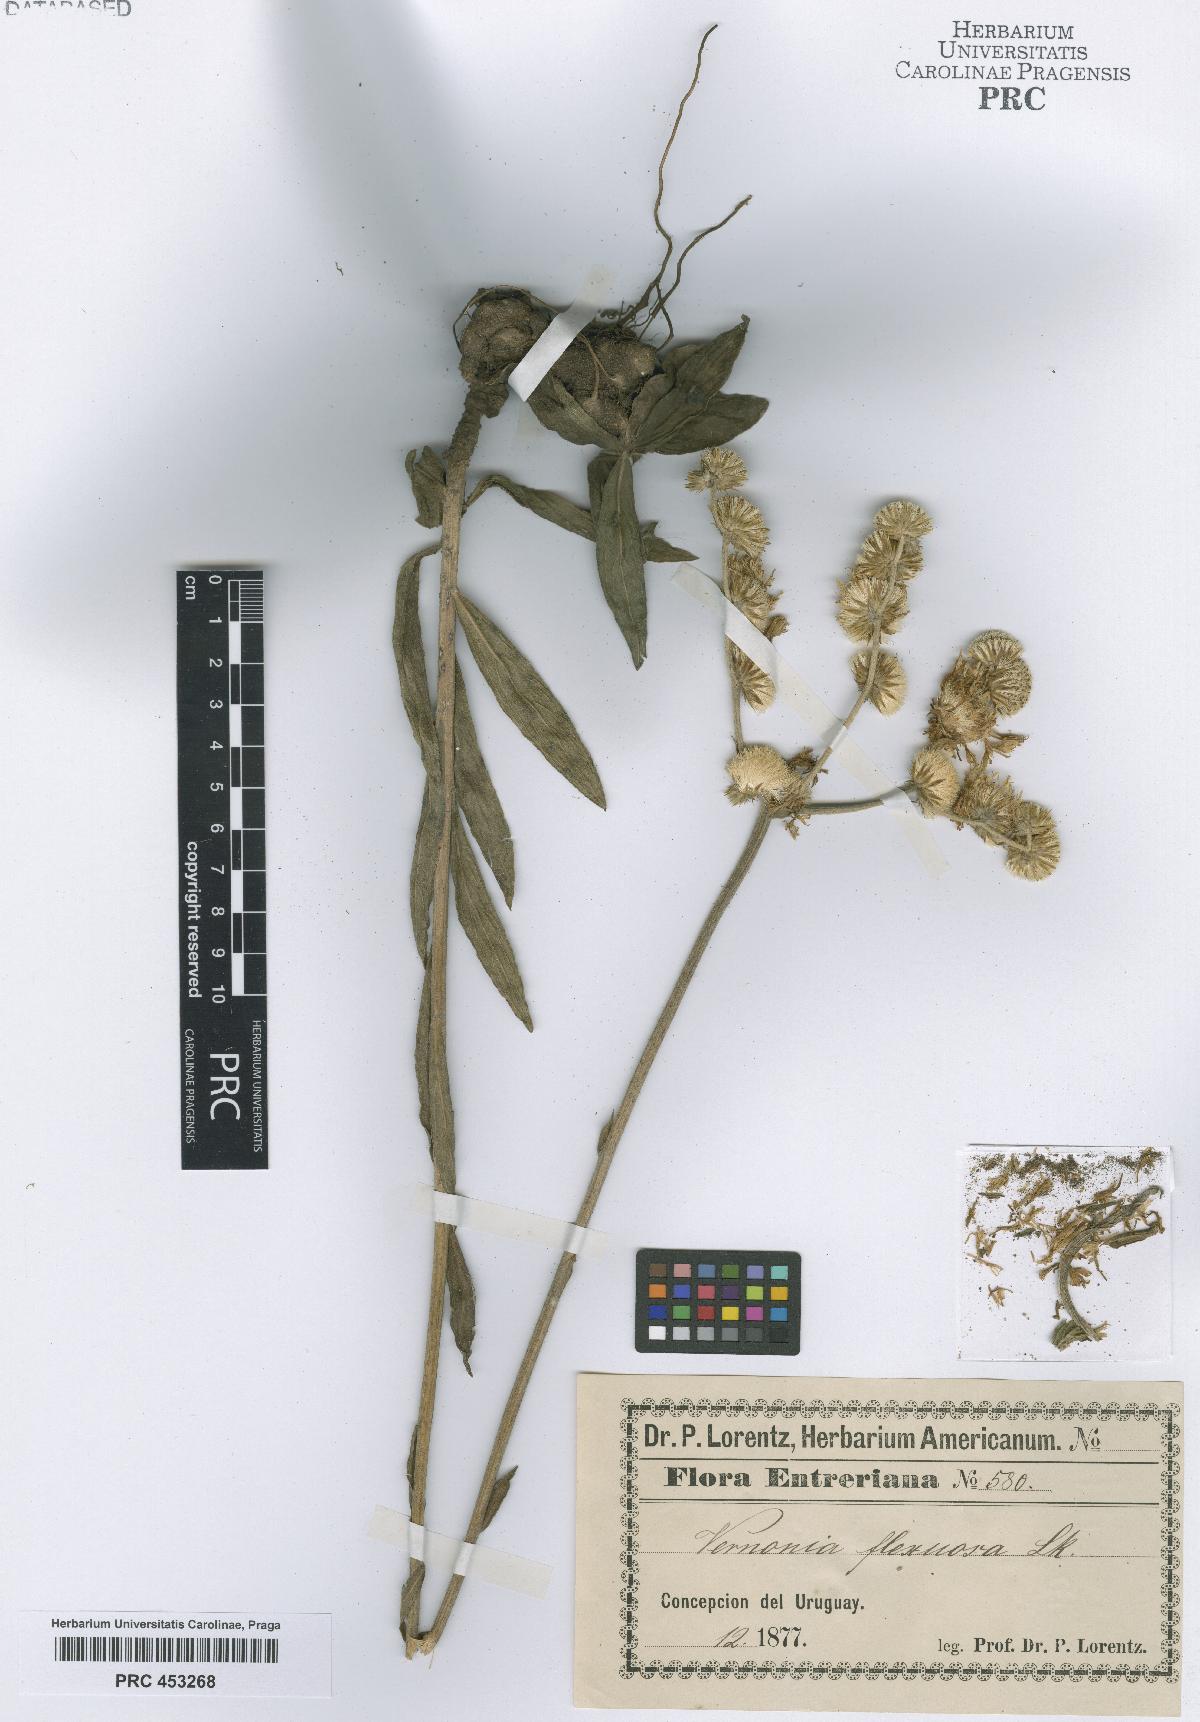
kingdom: Plantae
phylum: Tracheophyta
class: Magnoliopsida
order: Asterales
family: Asteraceae
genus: Vernonia
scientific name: Vernonia
